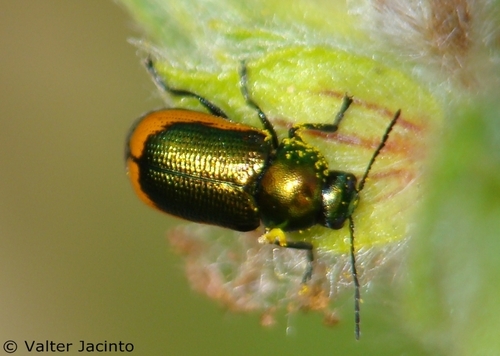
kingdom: Animalia
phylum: Arthropoda
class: Insecta
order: Coleoptera
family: Chrysomelidae
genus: Cryptocephalus
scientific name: Cryptocephalus ramburii
